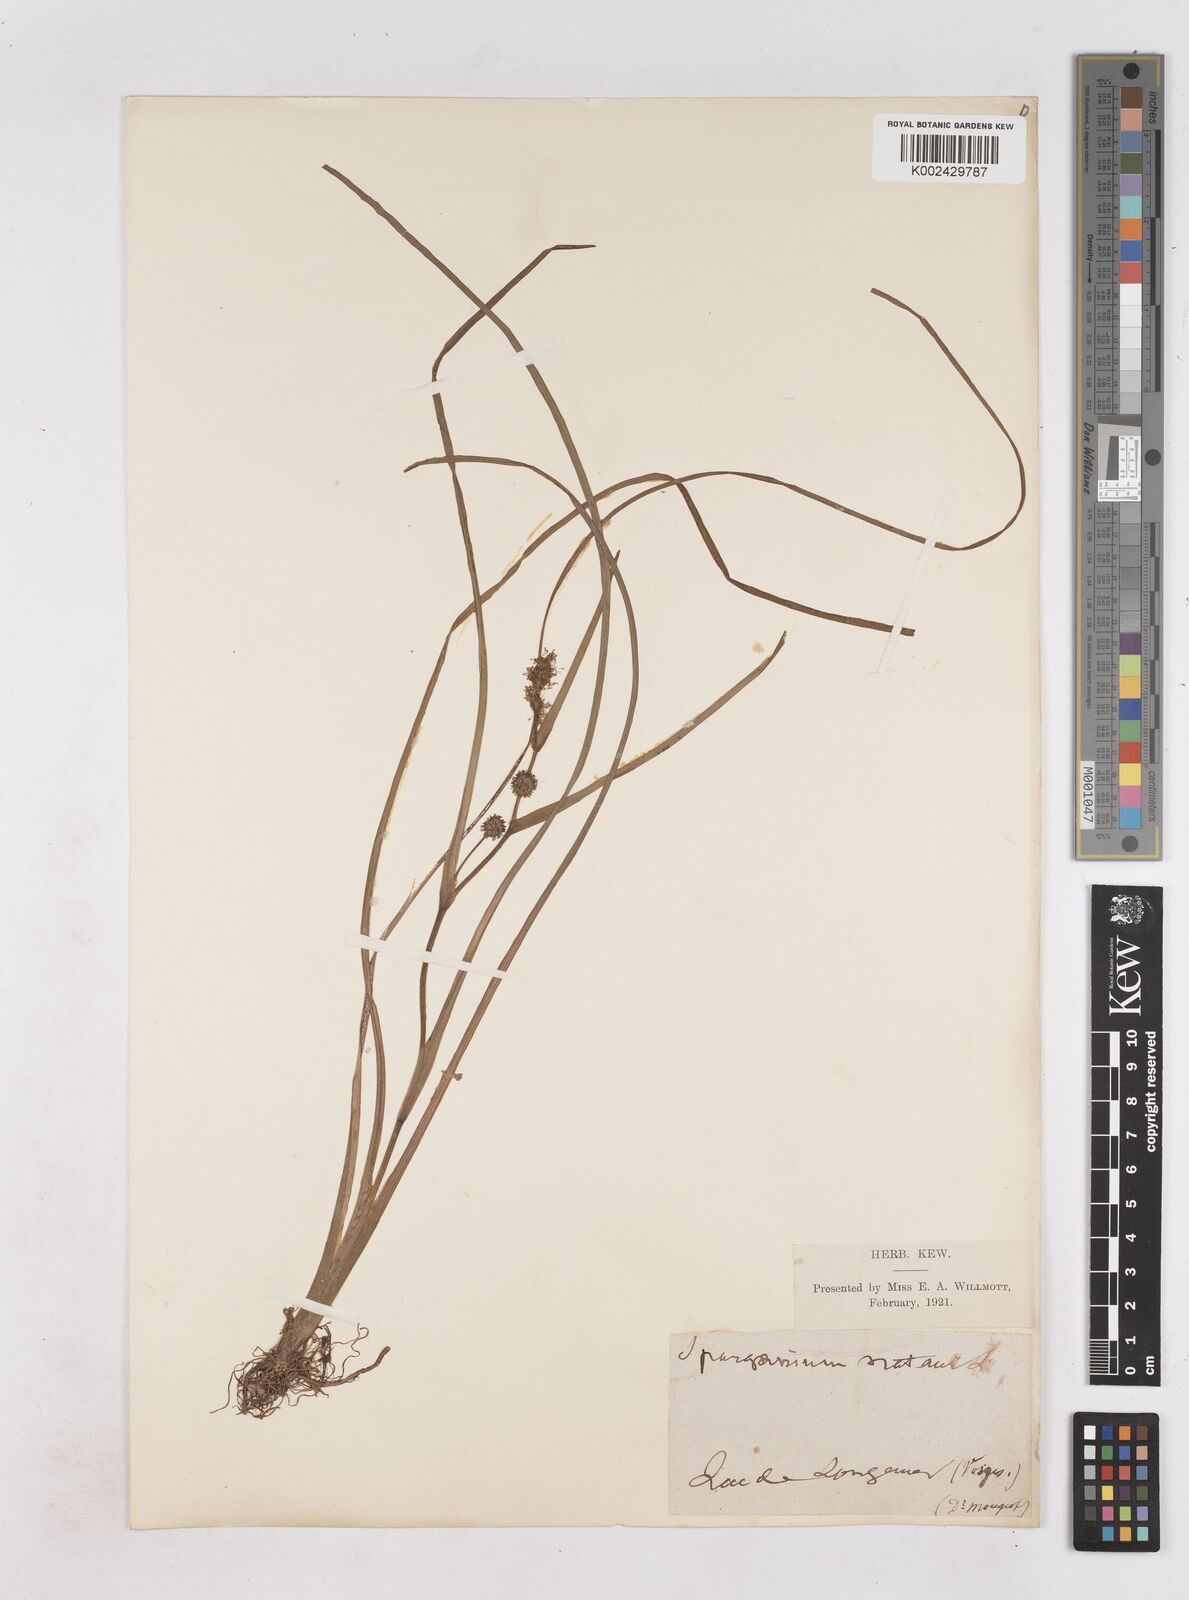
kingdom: Plantae
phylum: Tracheophyta
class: Liliopsida
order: Poales
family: Typhaceae
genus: Sparganium
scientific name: Sparganium angustifolium
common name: Floating bur-reed
